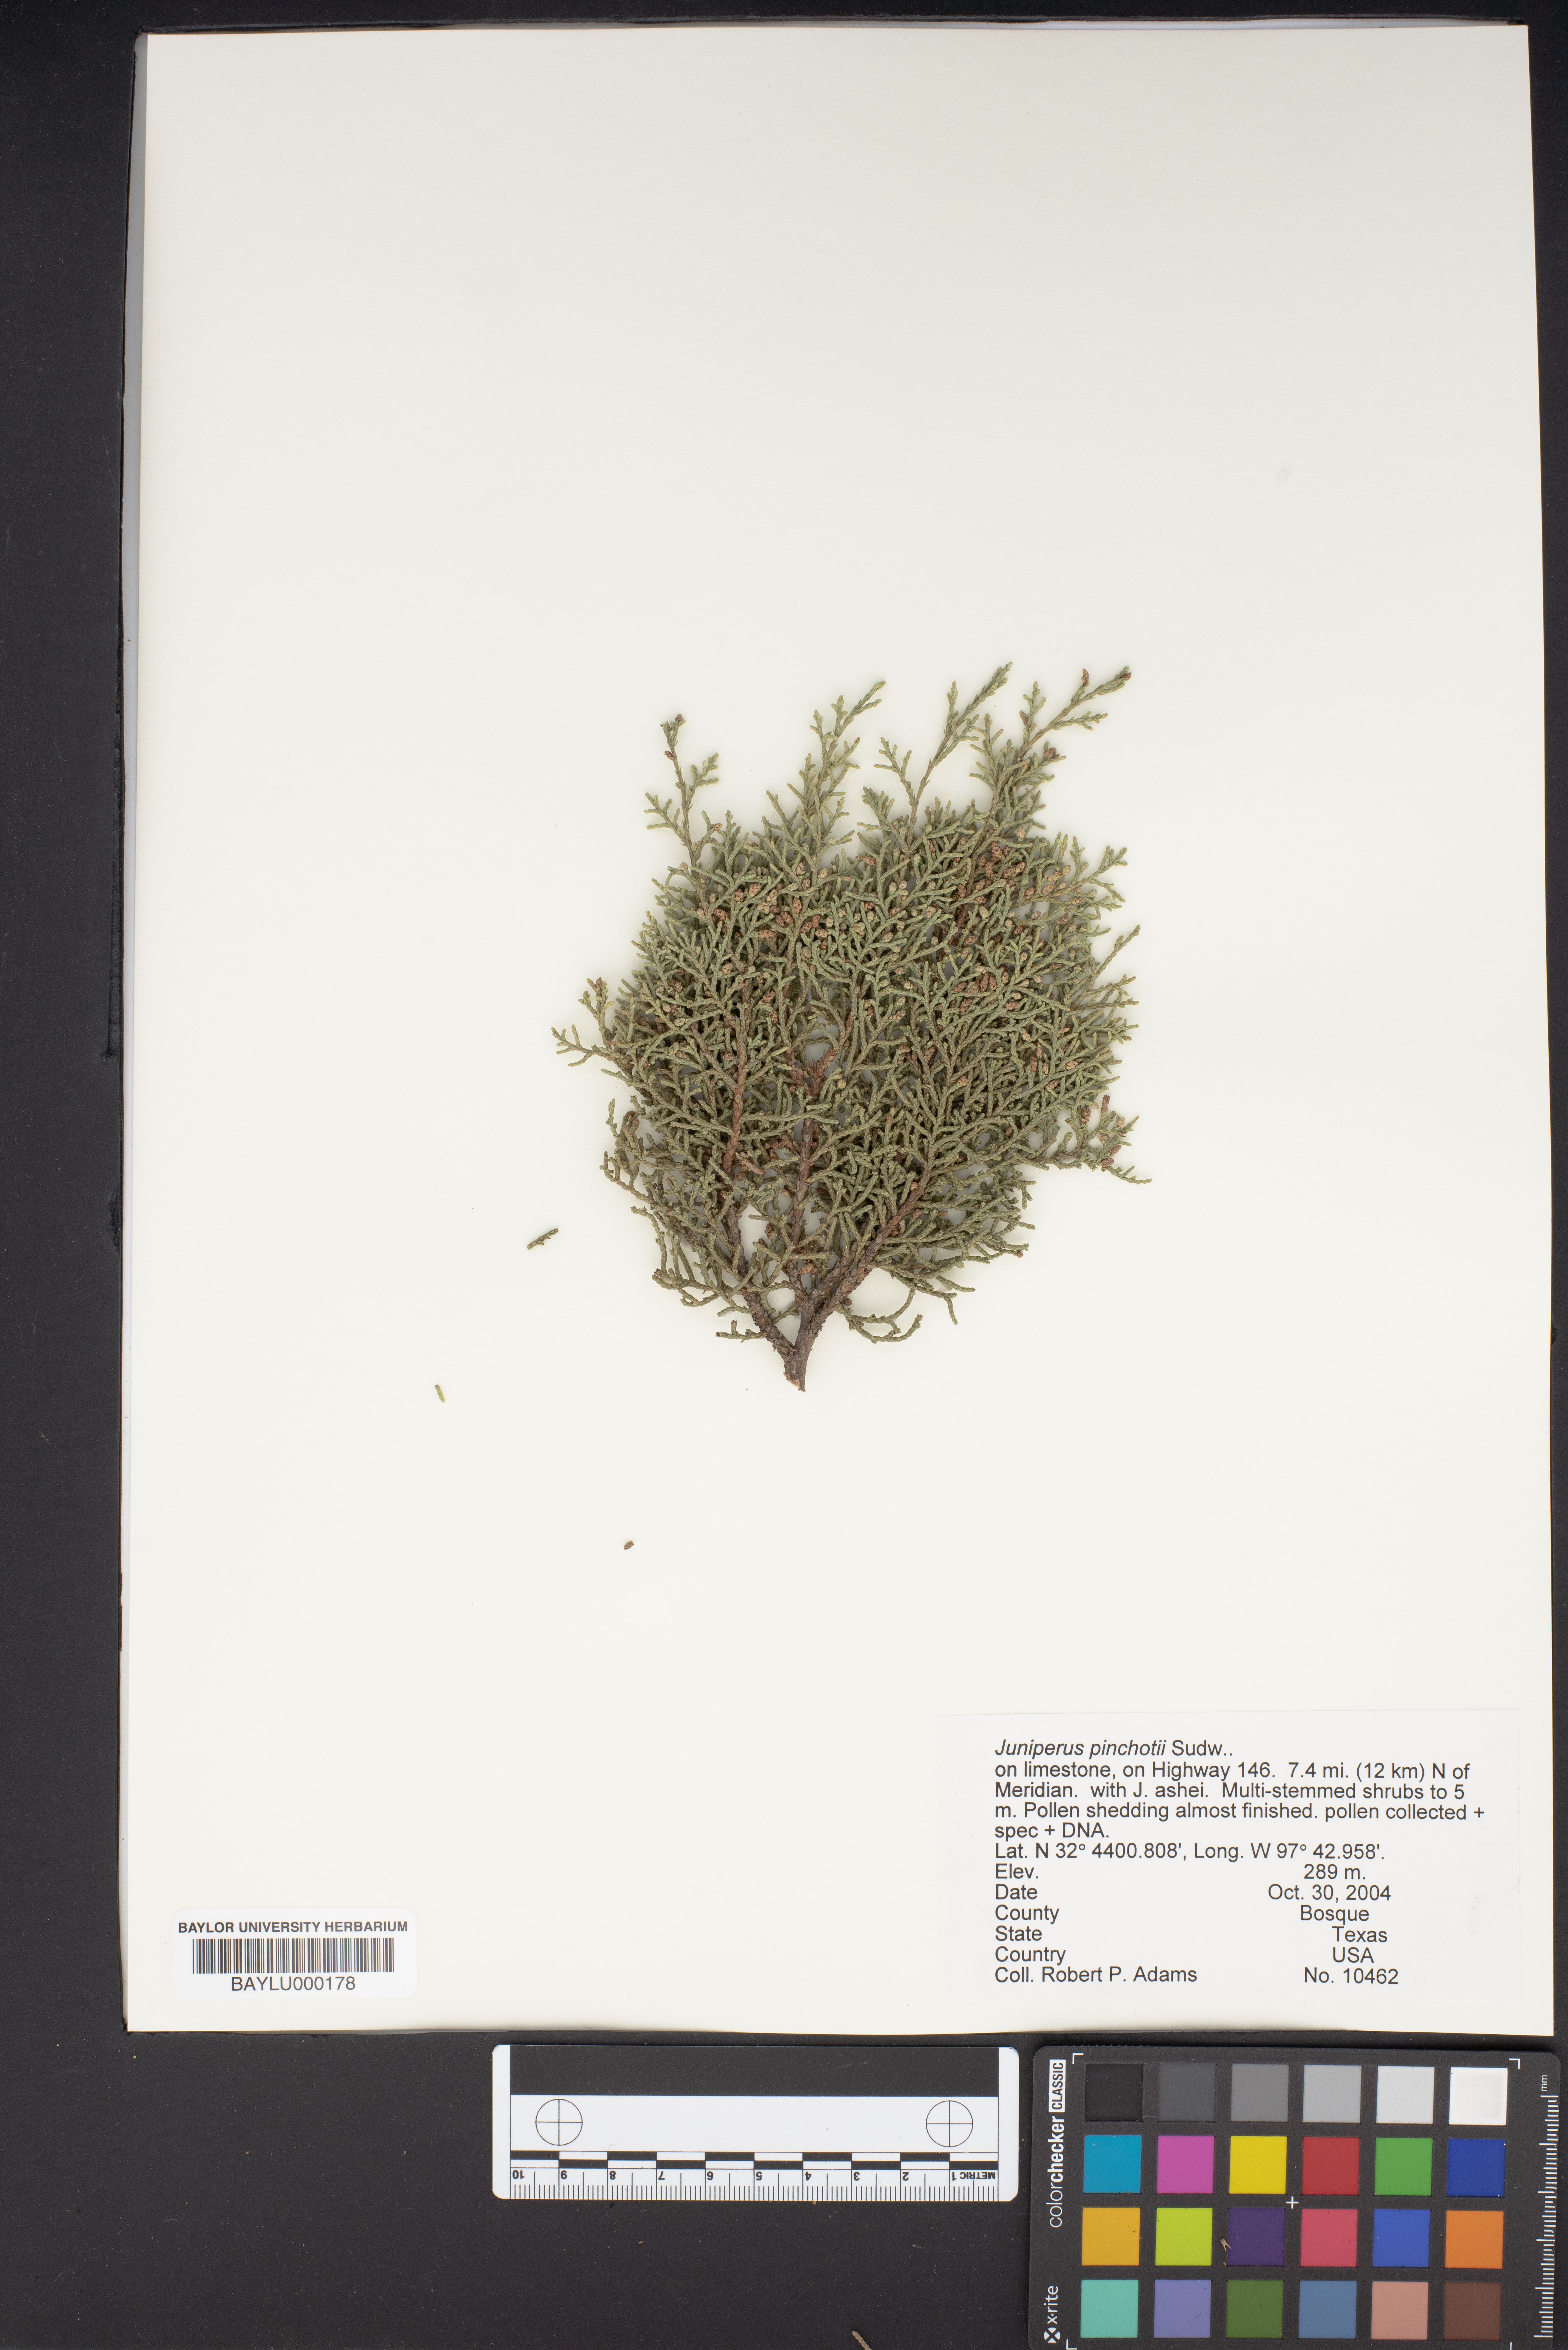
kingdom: Plantae
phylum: Tracheophyta
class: Pinopsida
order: Pinales
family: Cupressaceae
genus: Juniperus
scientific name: Juniperus pinchotii
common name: Pinchot juniper
